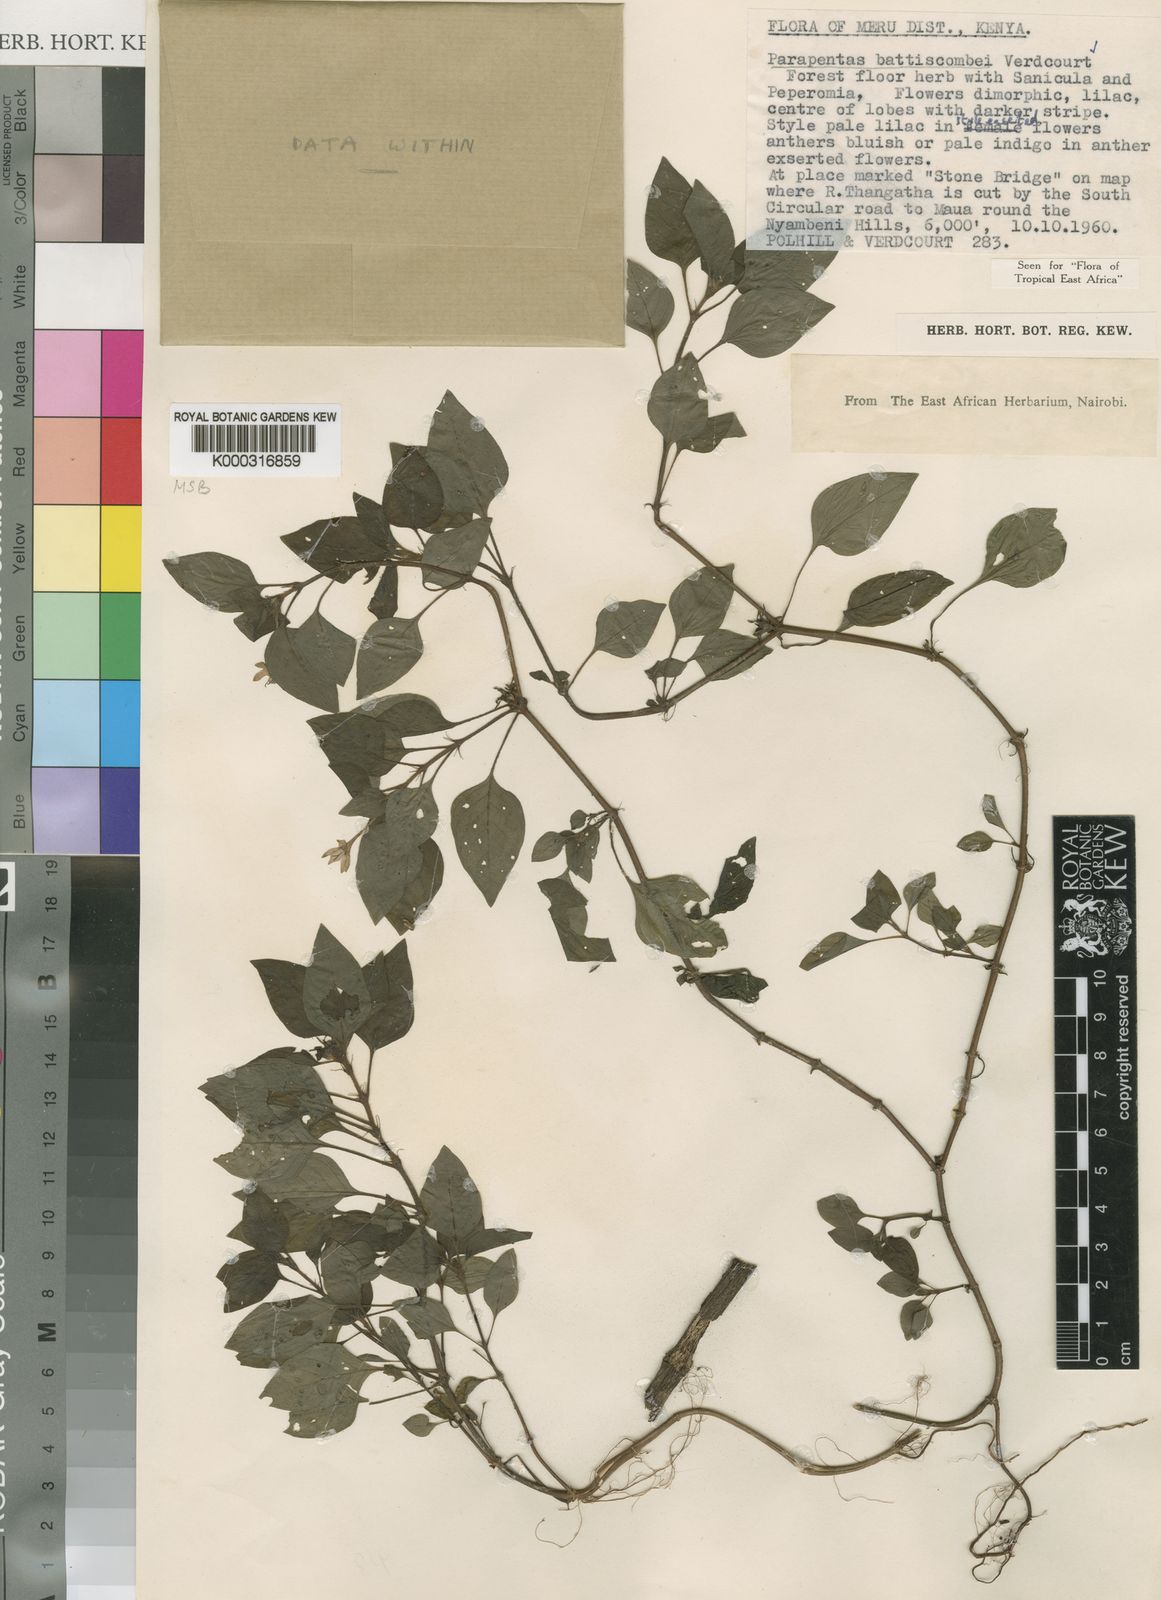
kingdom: Plantae
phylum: Tracheophyta
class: Magnoliopsida
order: Gentianales
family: Rubiaceae
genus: Parapentas
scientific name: Parapentas battiscombei
